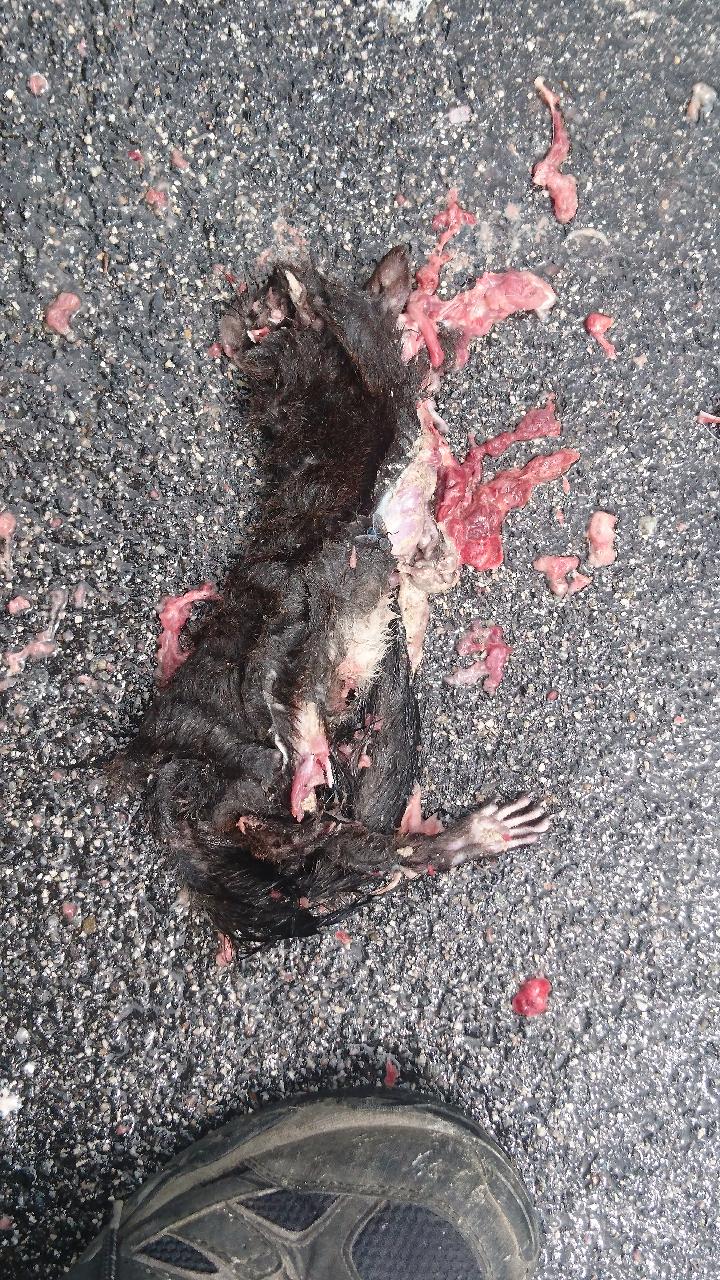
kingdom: Animalia
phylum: Chordata
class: Mammalia
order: Rodentia
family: Sciuridae
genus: Sciurus
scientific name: Sciurus vulgaris
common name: Eurasian red squirrel
